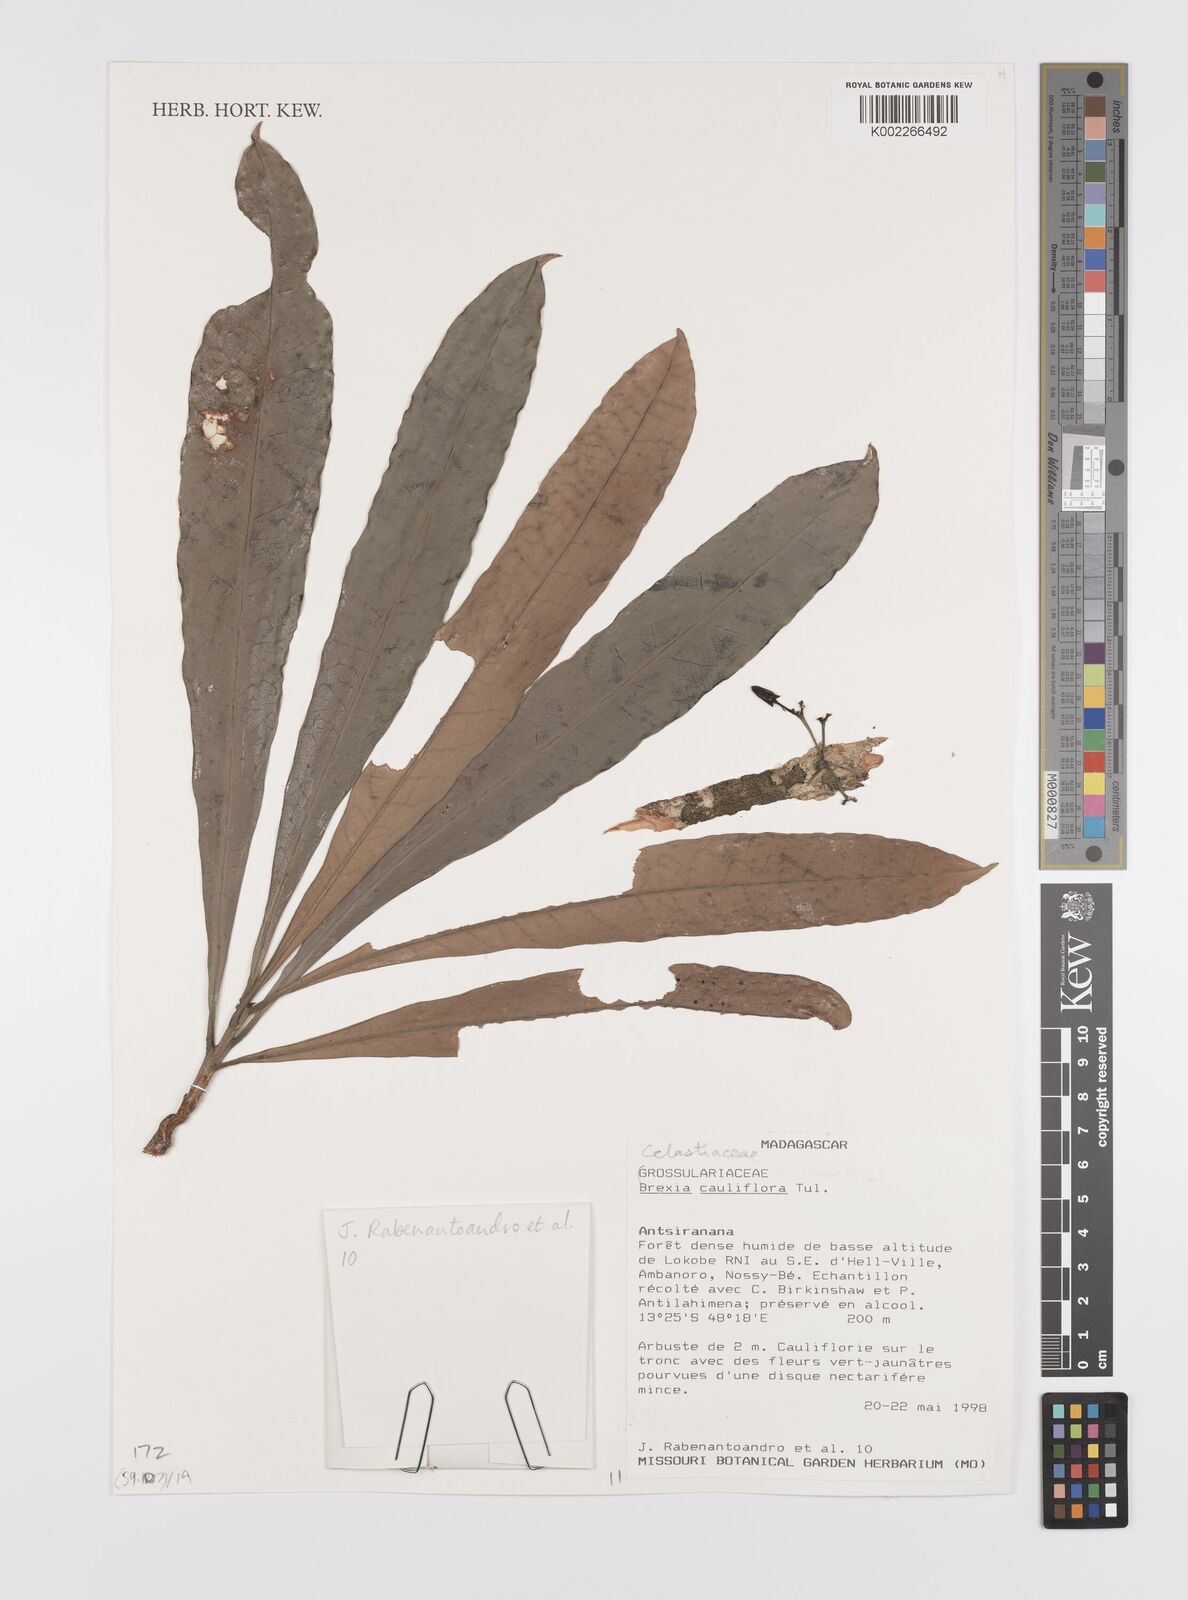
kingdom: Plantae
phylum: Tracheophyta
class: Magnoliopsida
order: Celastrales
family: Celastraceae
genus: Brexia
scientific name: Brexia cauliflora
